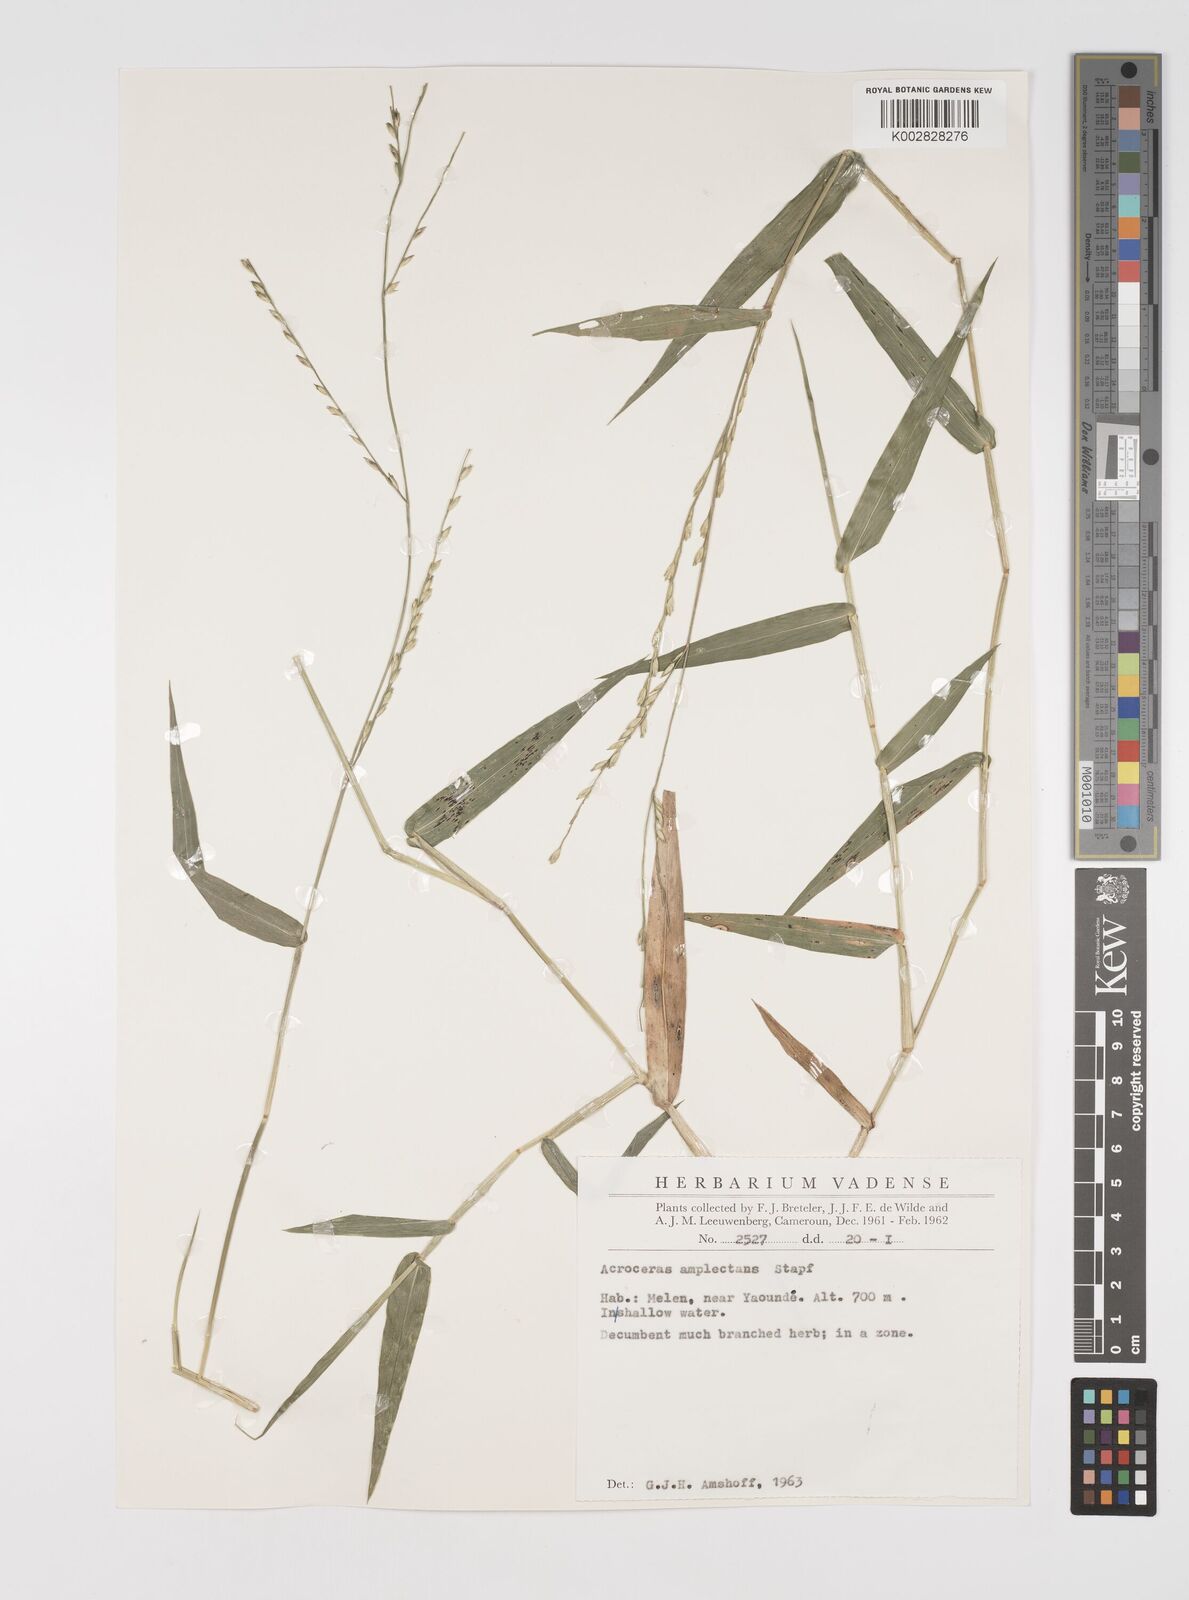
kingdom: Plantae
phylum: Tracheophyta
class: Liliopsida
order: Poales
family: Poaceae
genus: Acroceras
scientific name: Acroceras zizanioides
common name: Oat grass
